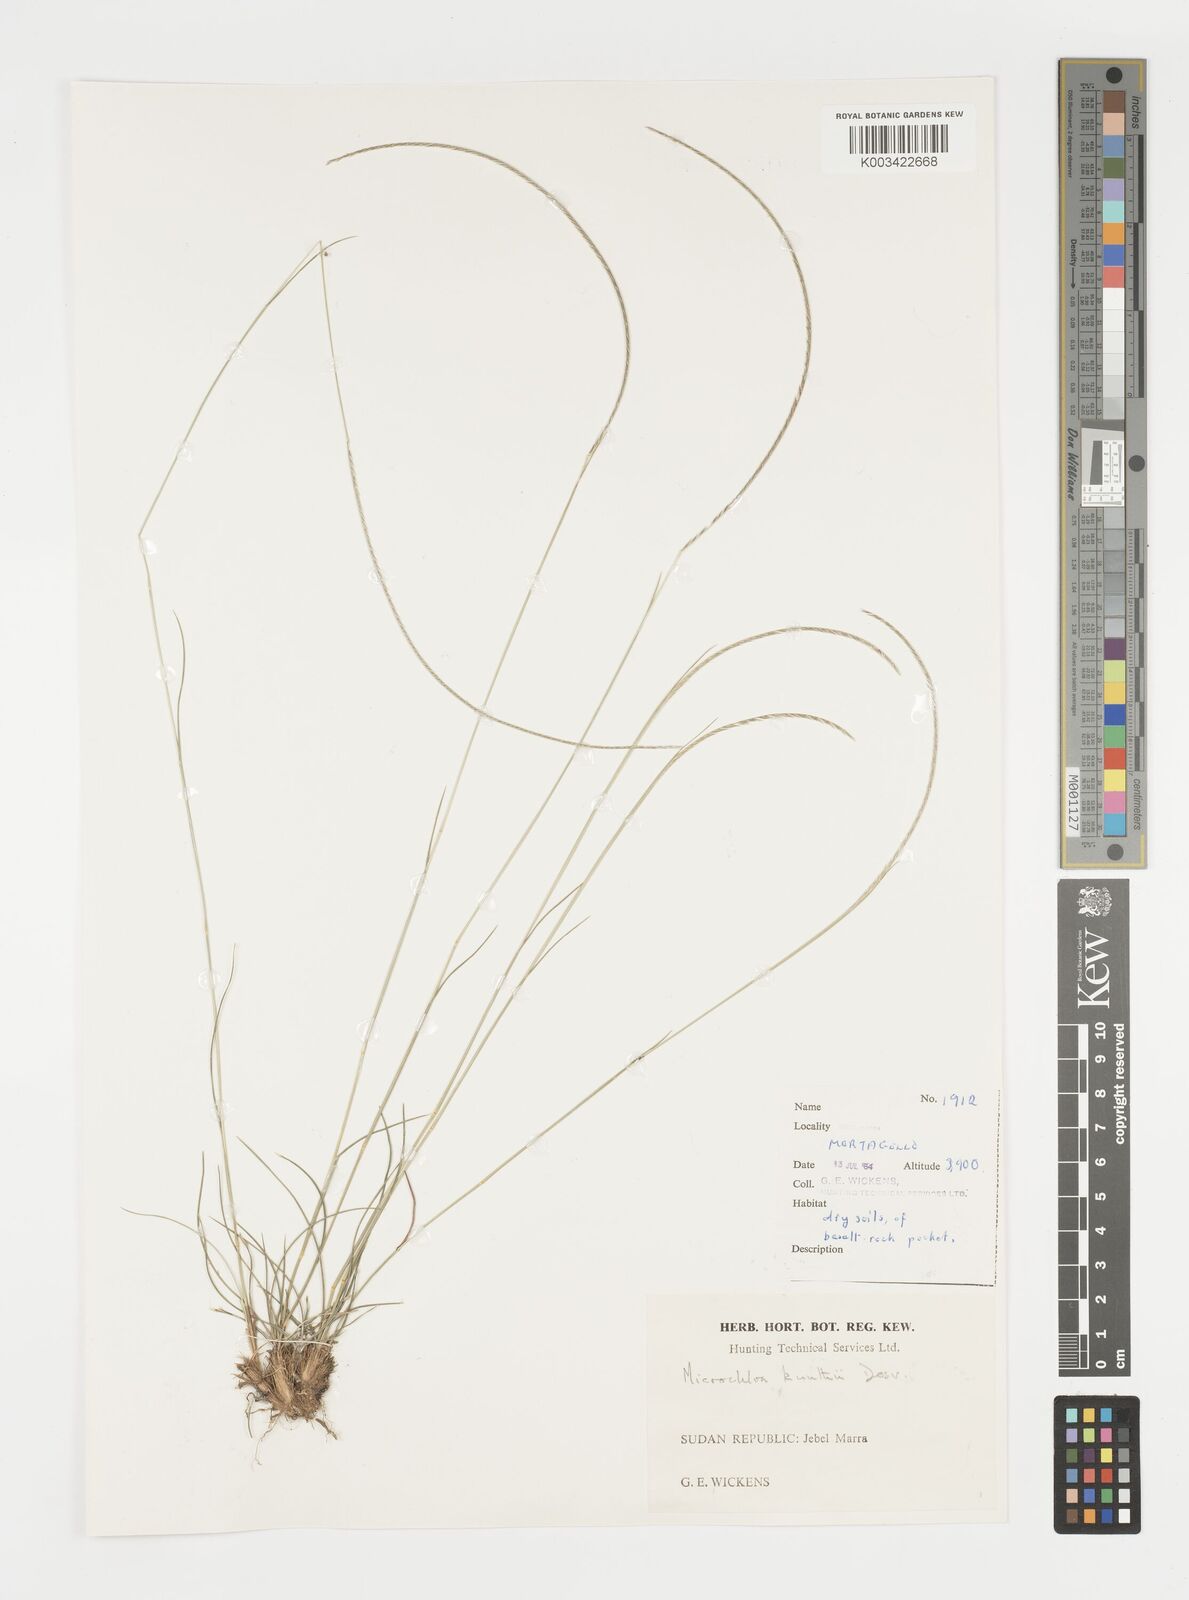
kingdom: Plantae
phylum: Tracheophyta
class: Liliopsida
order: Poales
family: Poaceae
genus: Microchloa
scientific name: Microchloa kunthii
